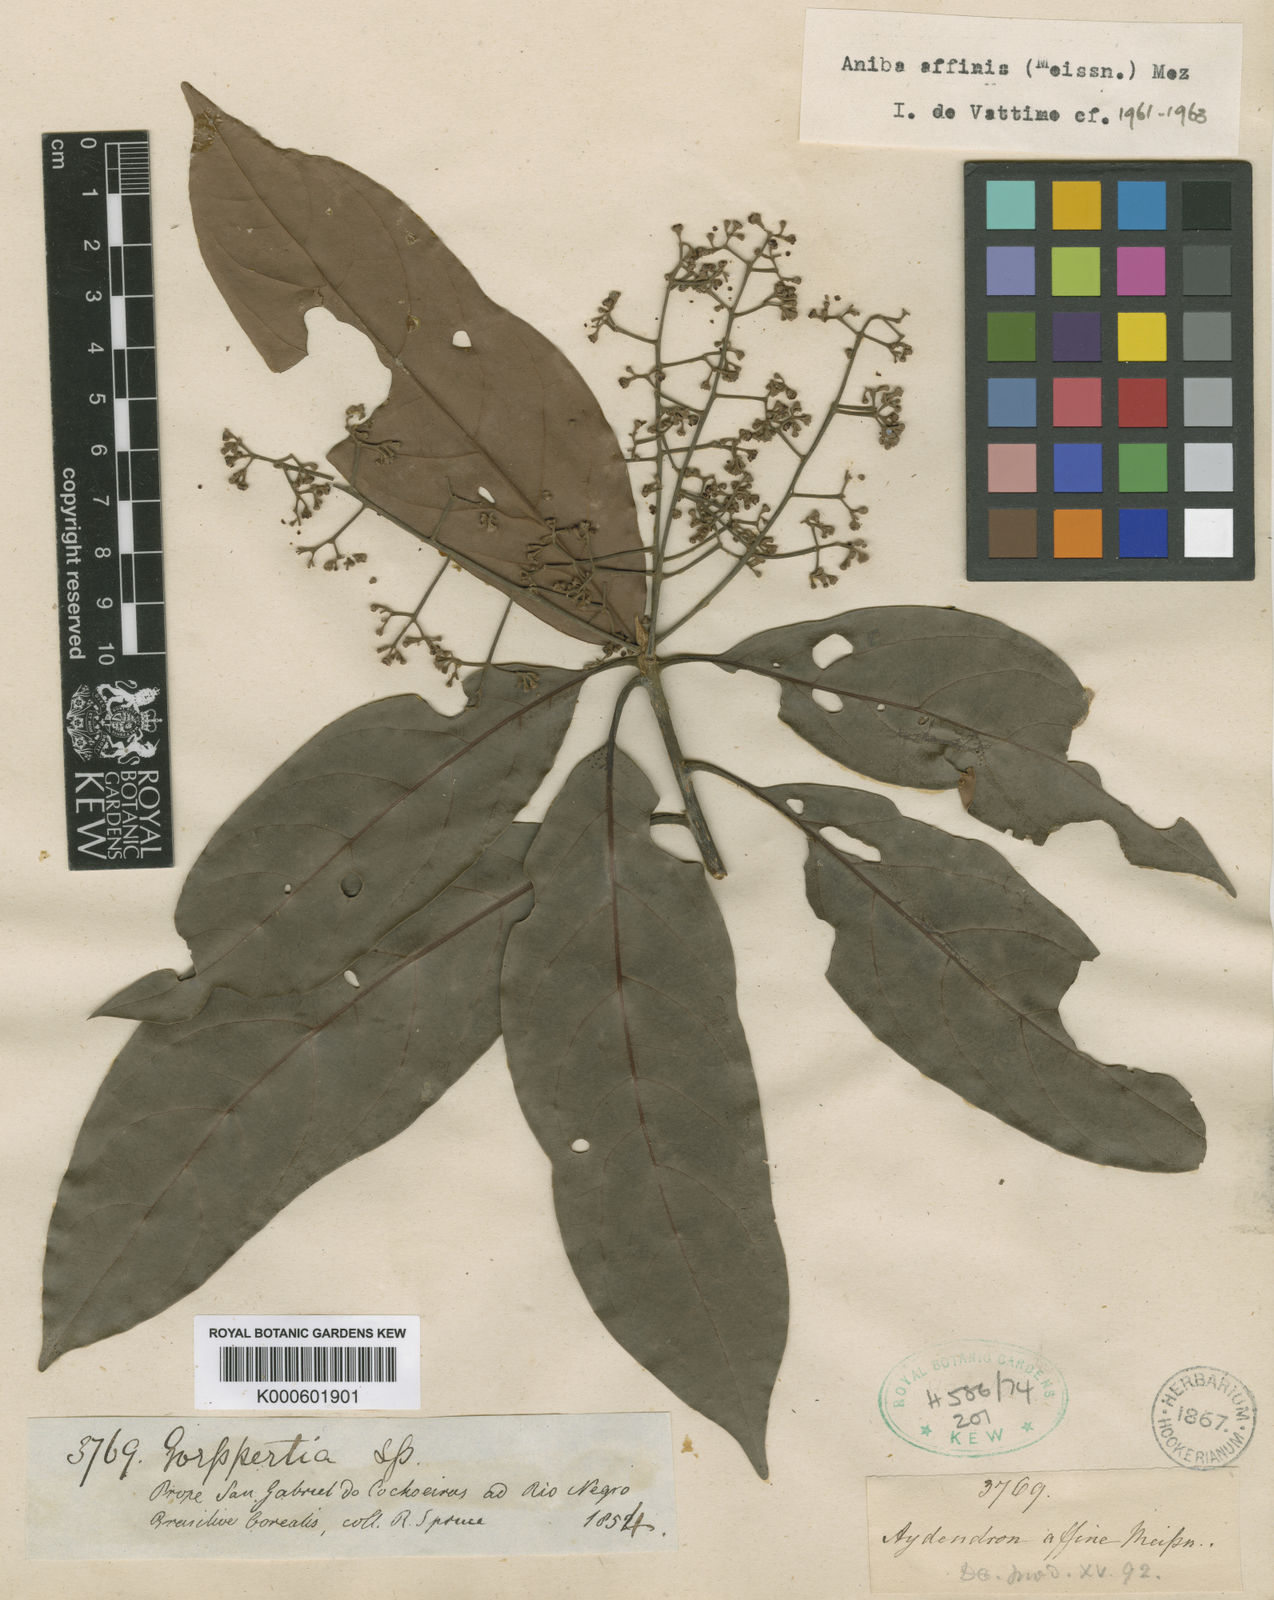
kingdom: Plantae
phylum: Tracheophyta
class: Magnoliopsida
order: Laurales
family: Lauraceae
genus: Aniba
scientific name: Aniba affinis
